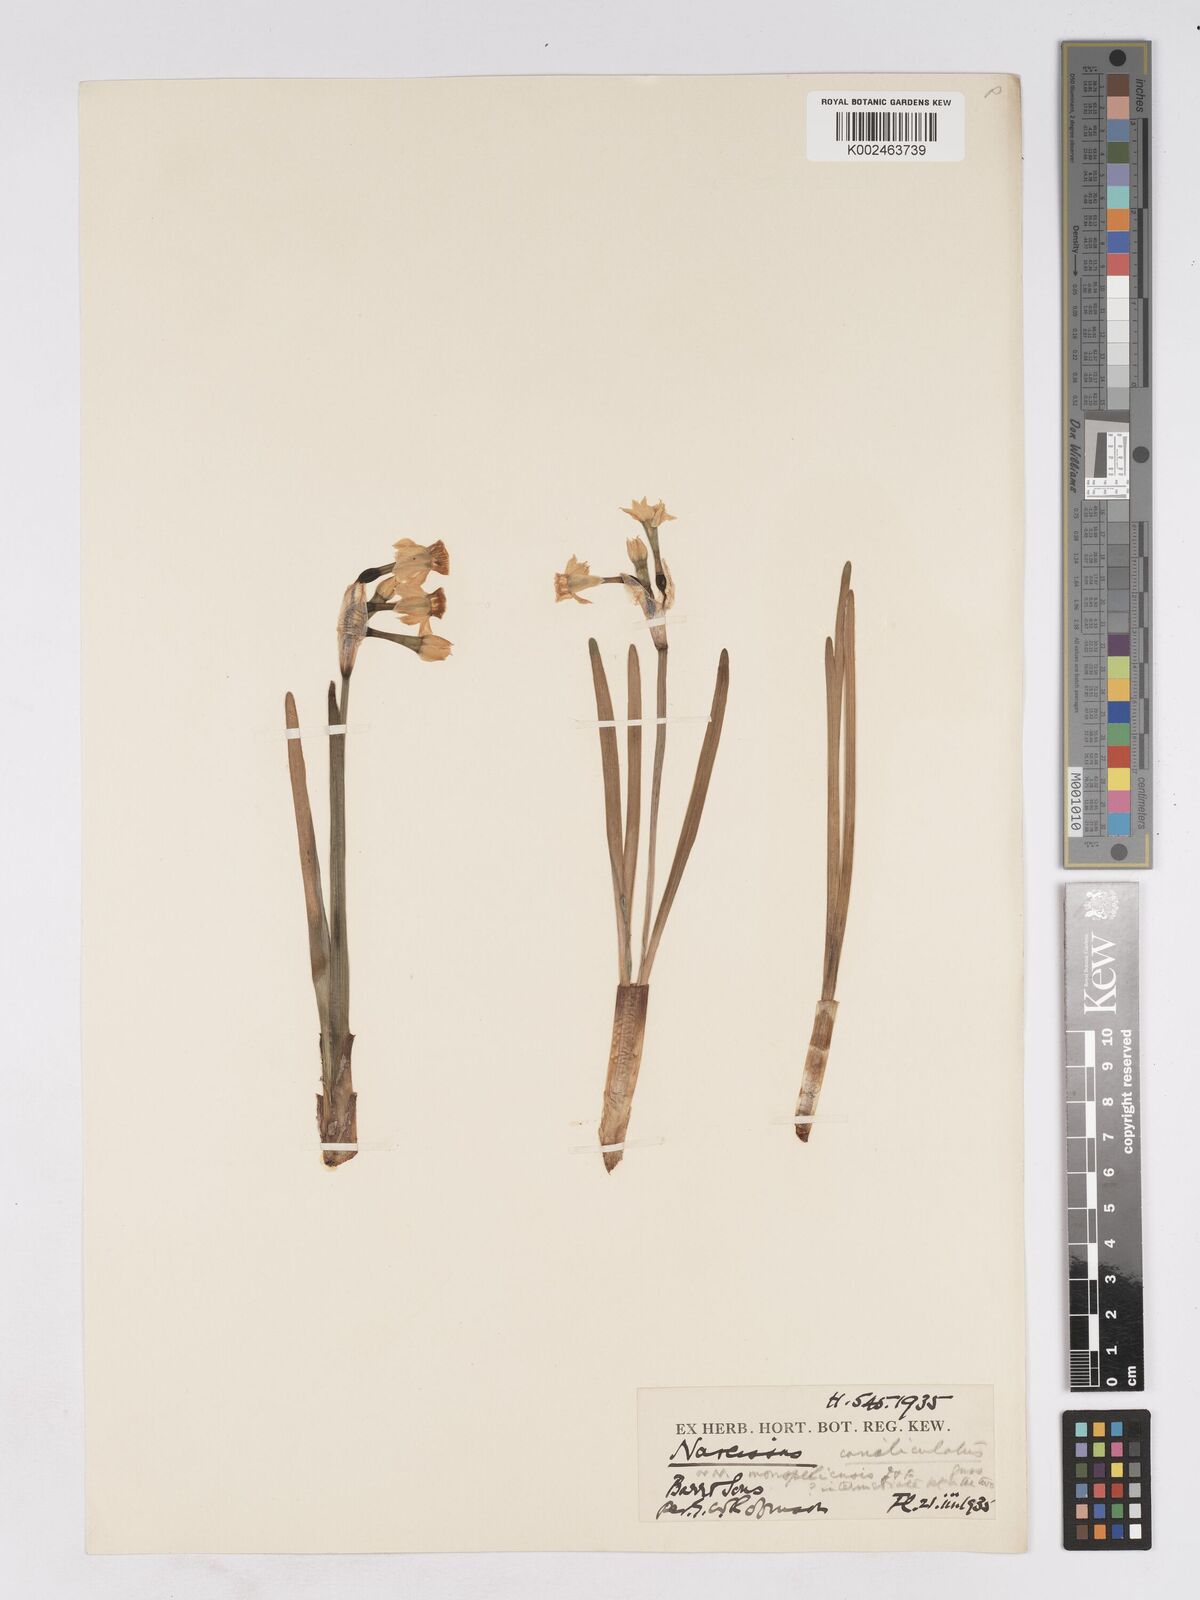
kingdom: Plantae
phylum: Tracheophyta
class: Liliopsida
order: Asparagales
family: Amaryllidaceae
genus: Narcissus
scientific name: Narcissus tazetta
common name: Bunch-flowered daffodil
